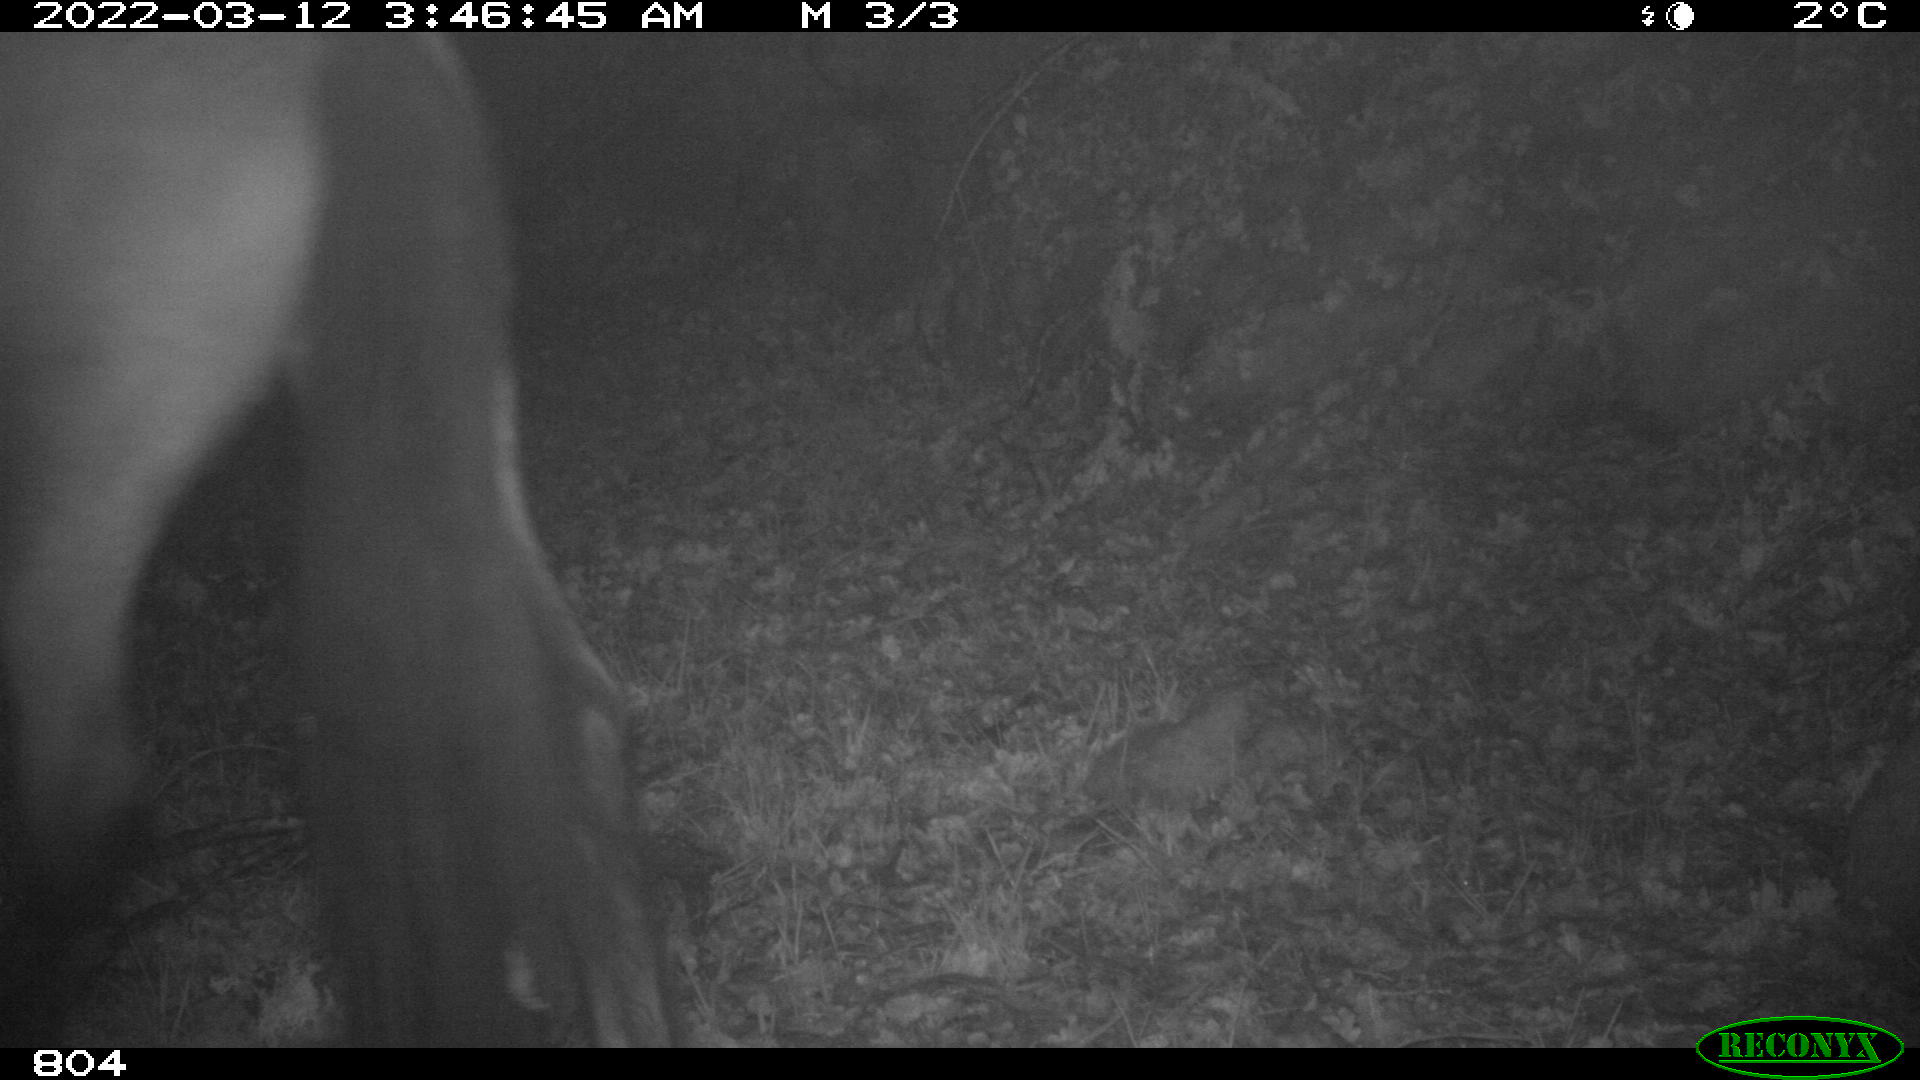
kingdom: Animalia
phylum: Chordata
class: Mammalia
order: Perissodactyla
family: Equidae
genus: Equus
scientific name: Equus caballus
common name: Horse
